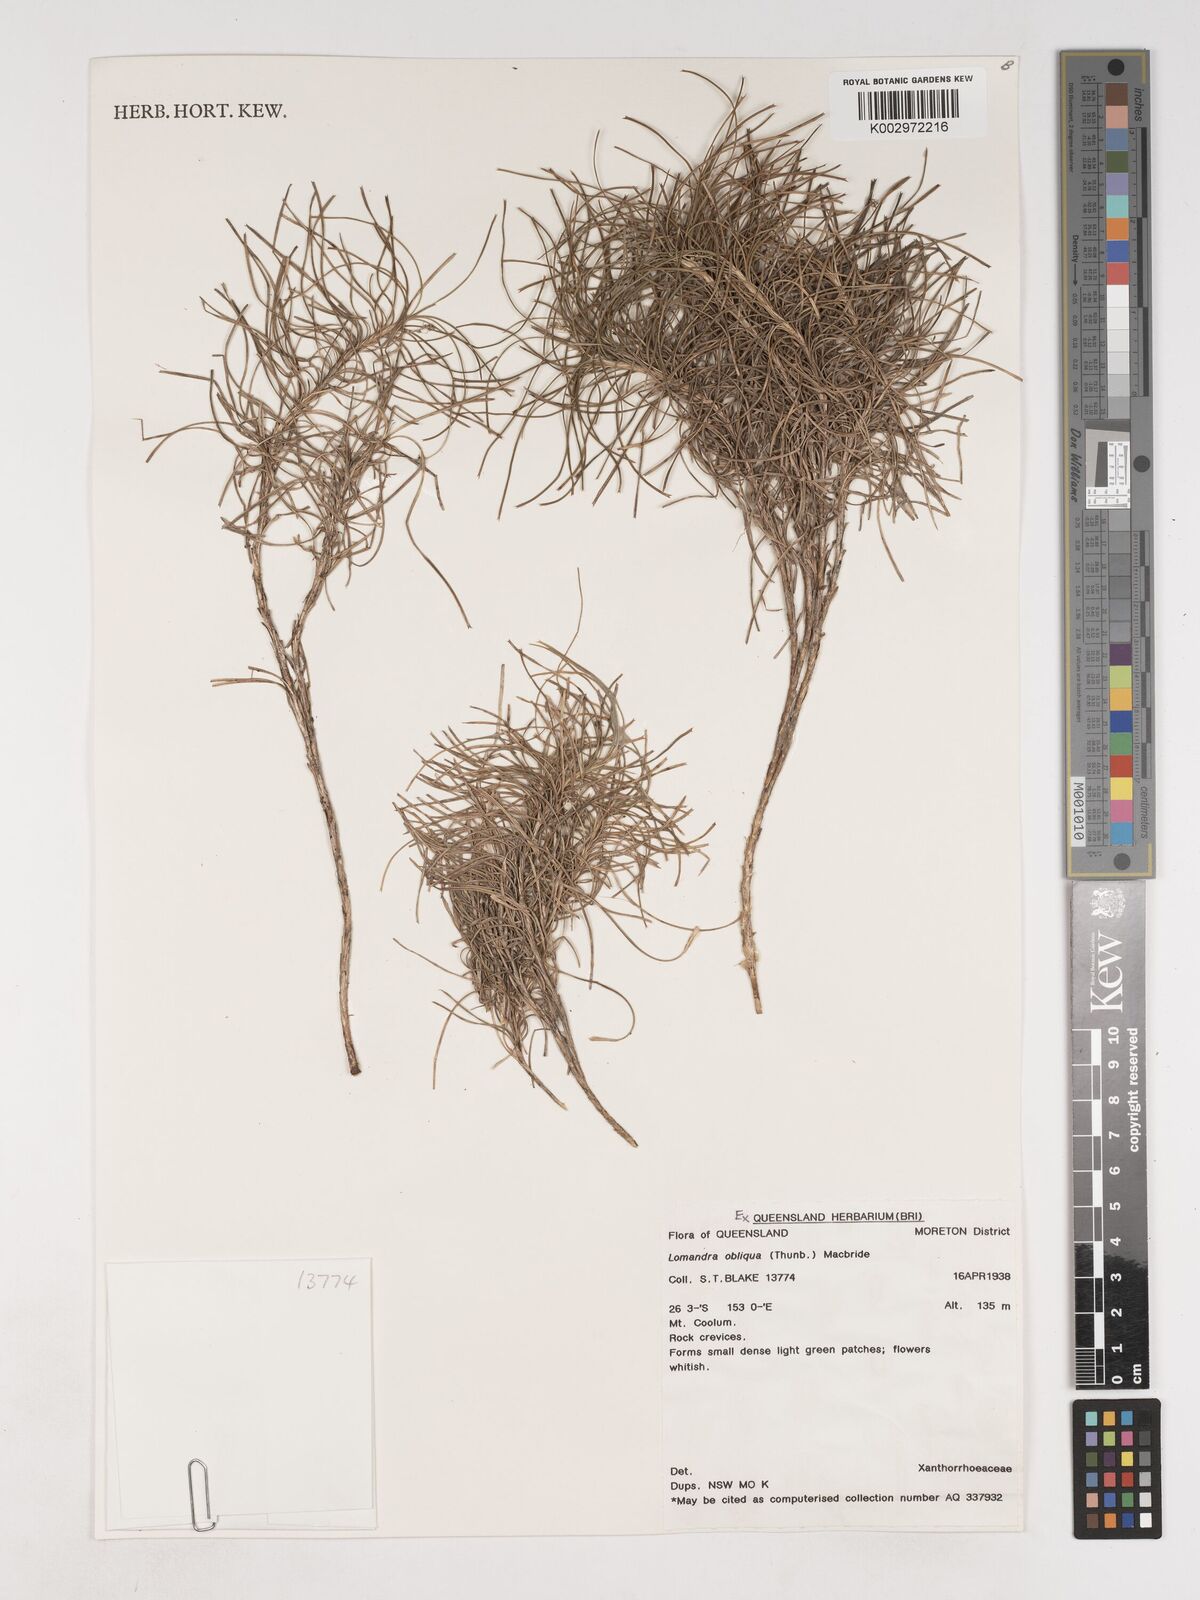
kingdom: Plantae
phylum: Tracheophyta
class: Liliopsida
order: Asparagales
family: Asparagaceae
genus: Lomandra
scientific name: Lomandra obliqua
